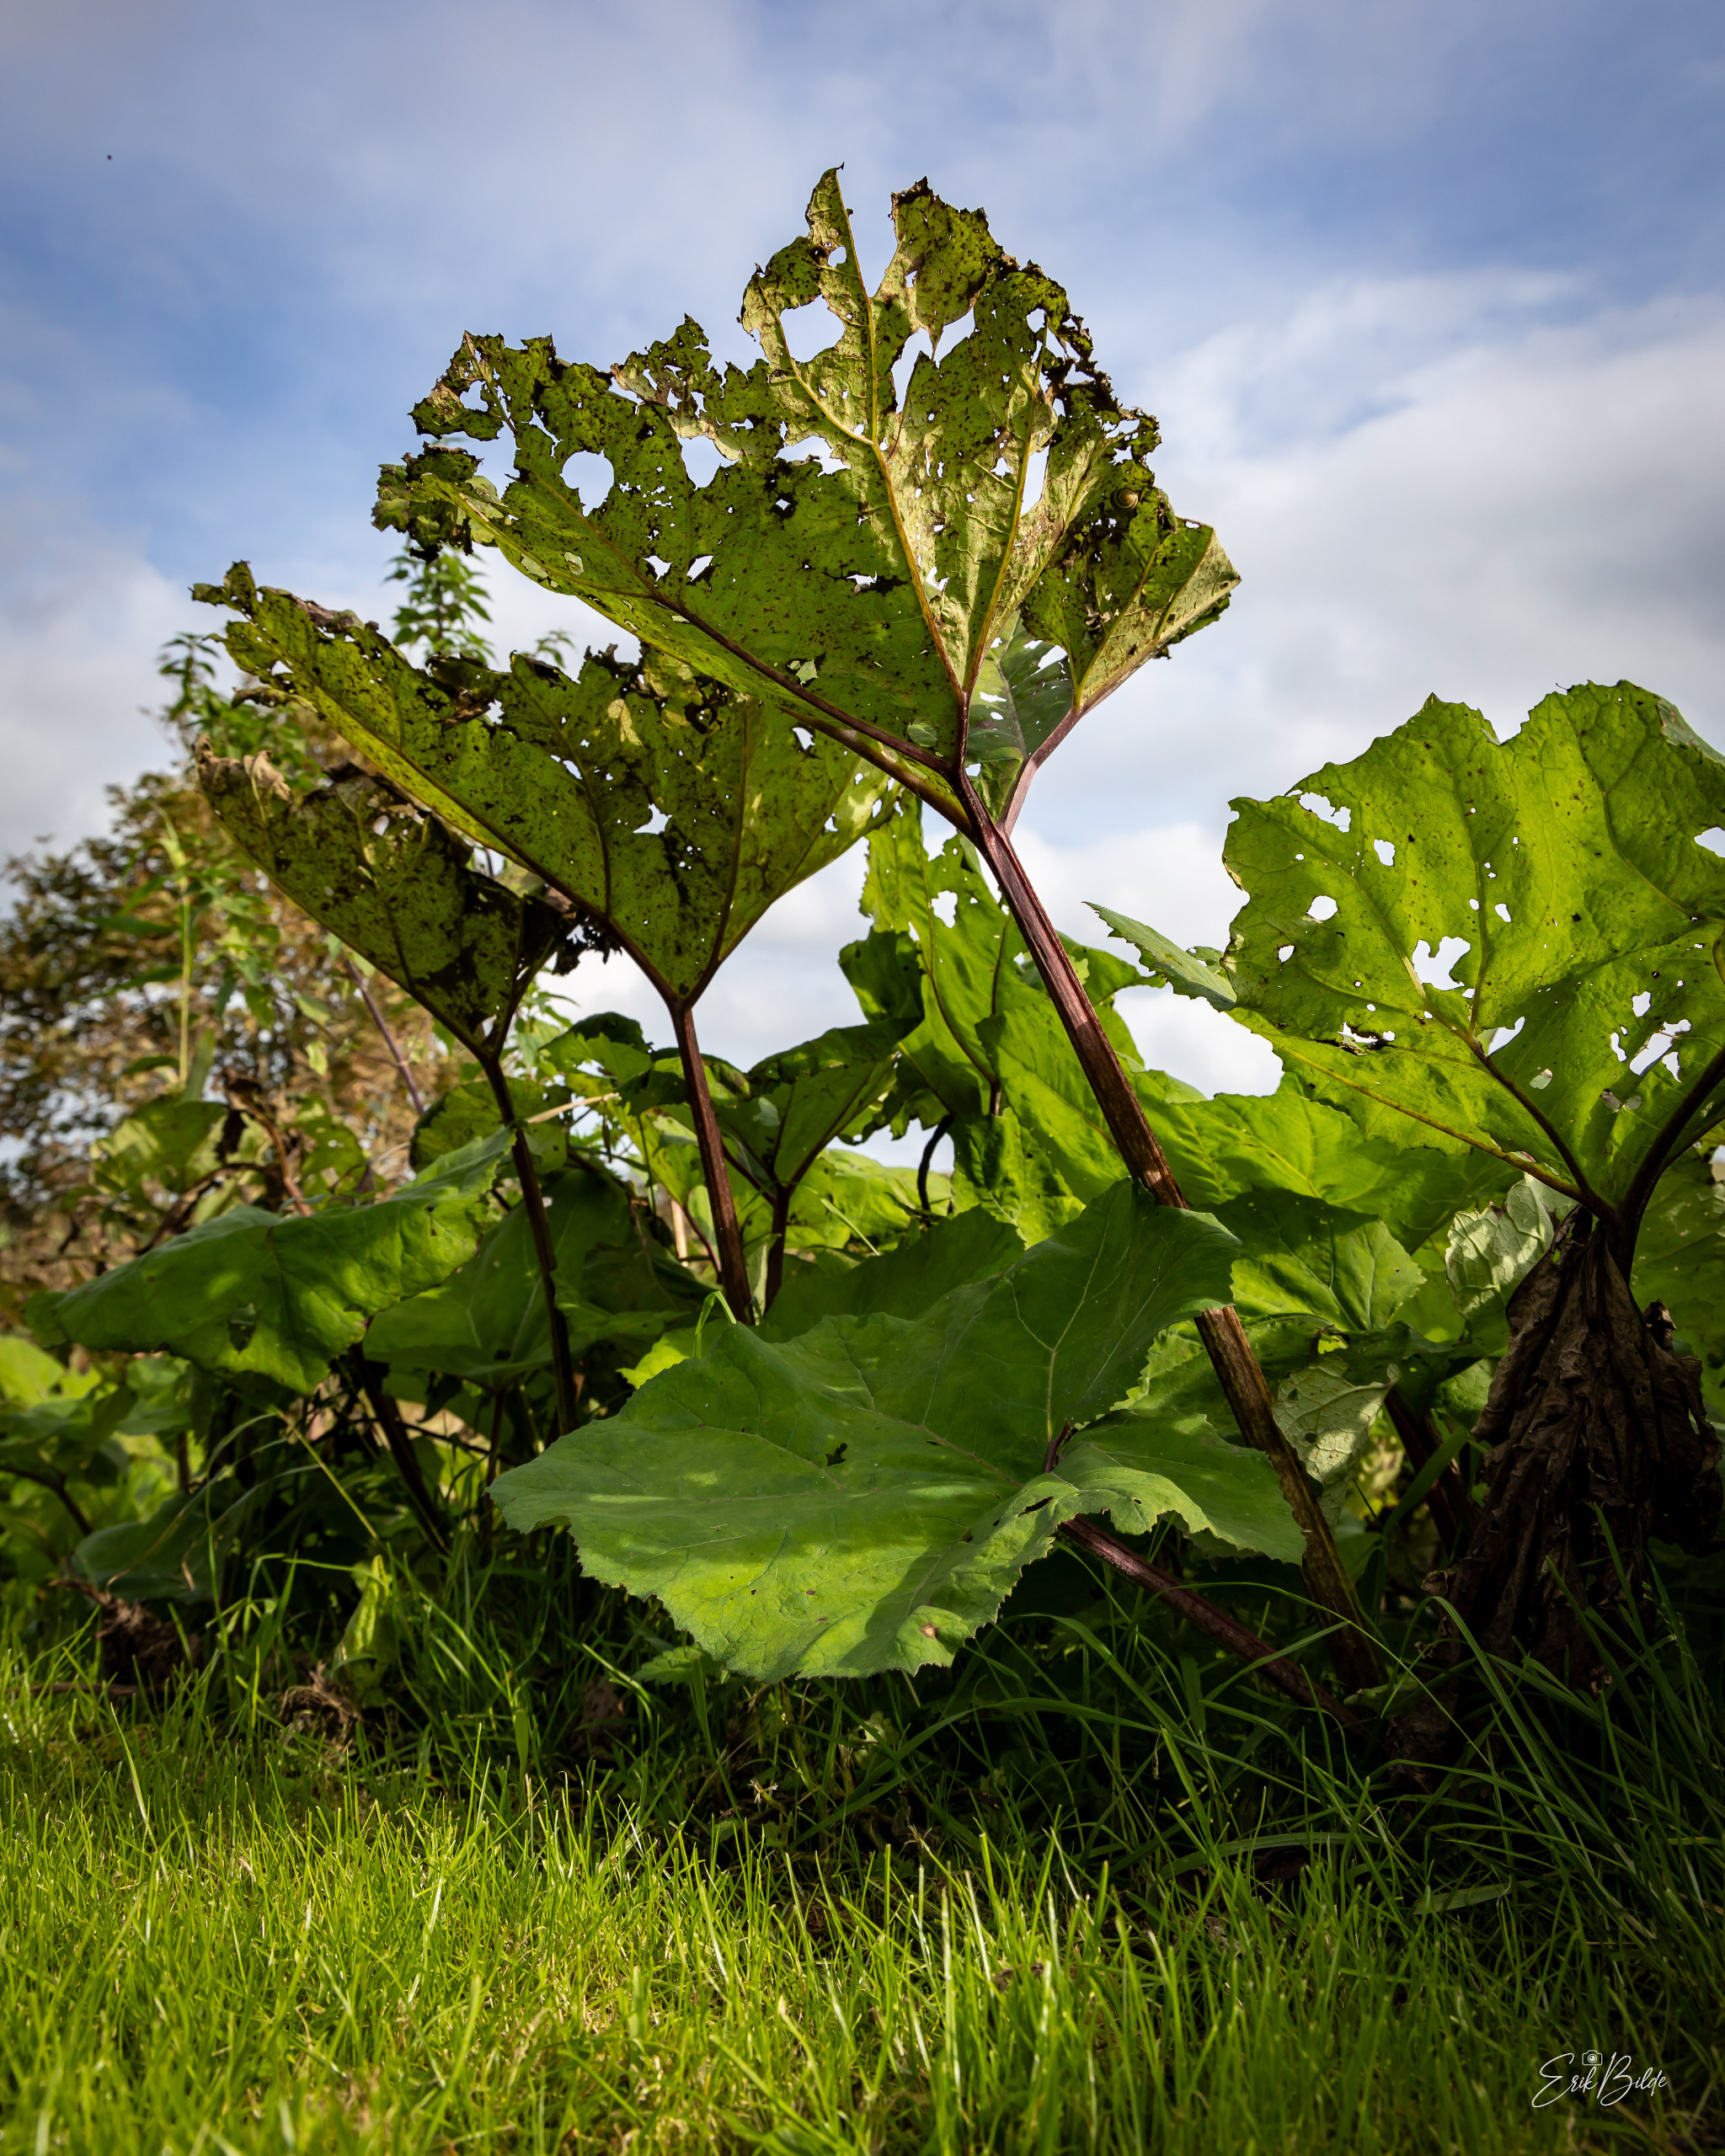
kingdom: Plantae
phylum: Tracheophyta
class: Magnoliopsida
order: Asterales
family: Asteraceae
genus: Petasites
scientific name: Petasites hybridus
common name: Rød hestehov
